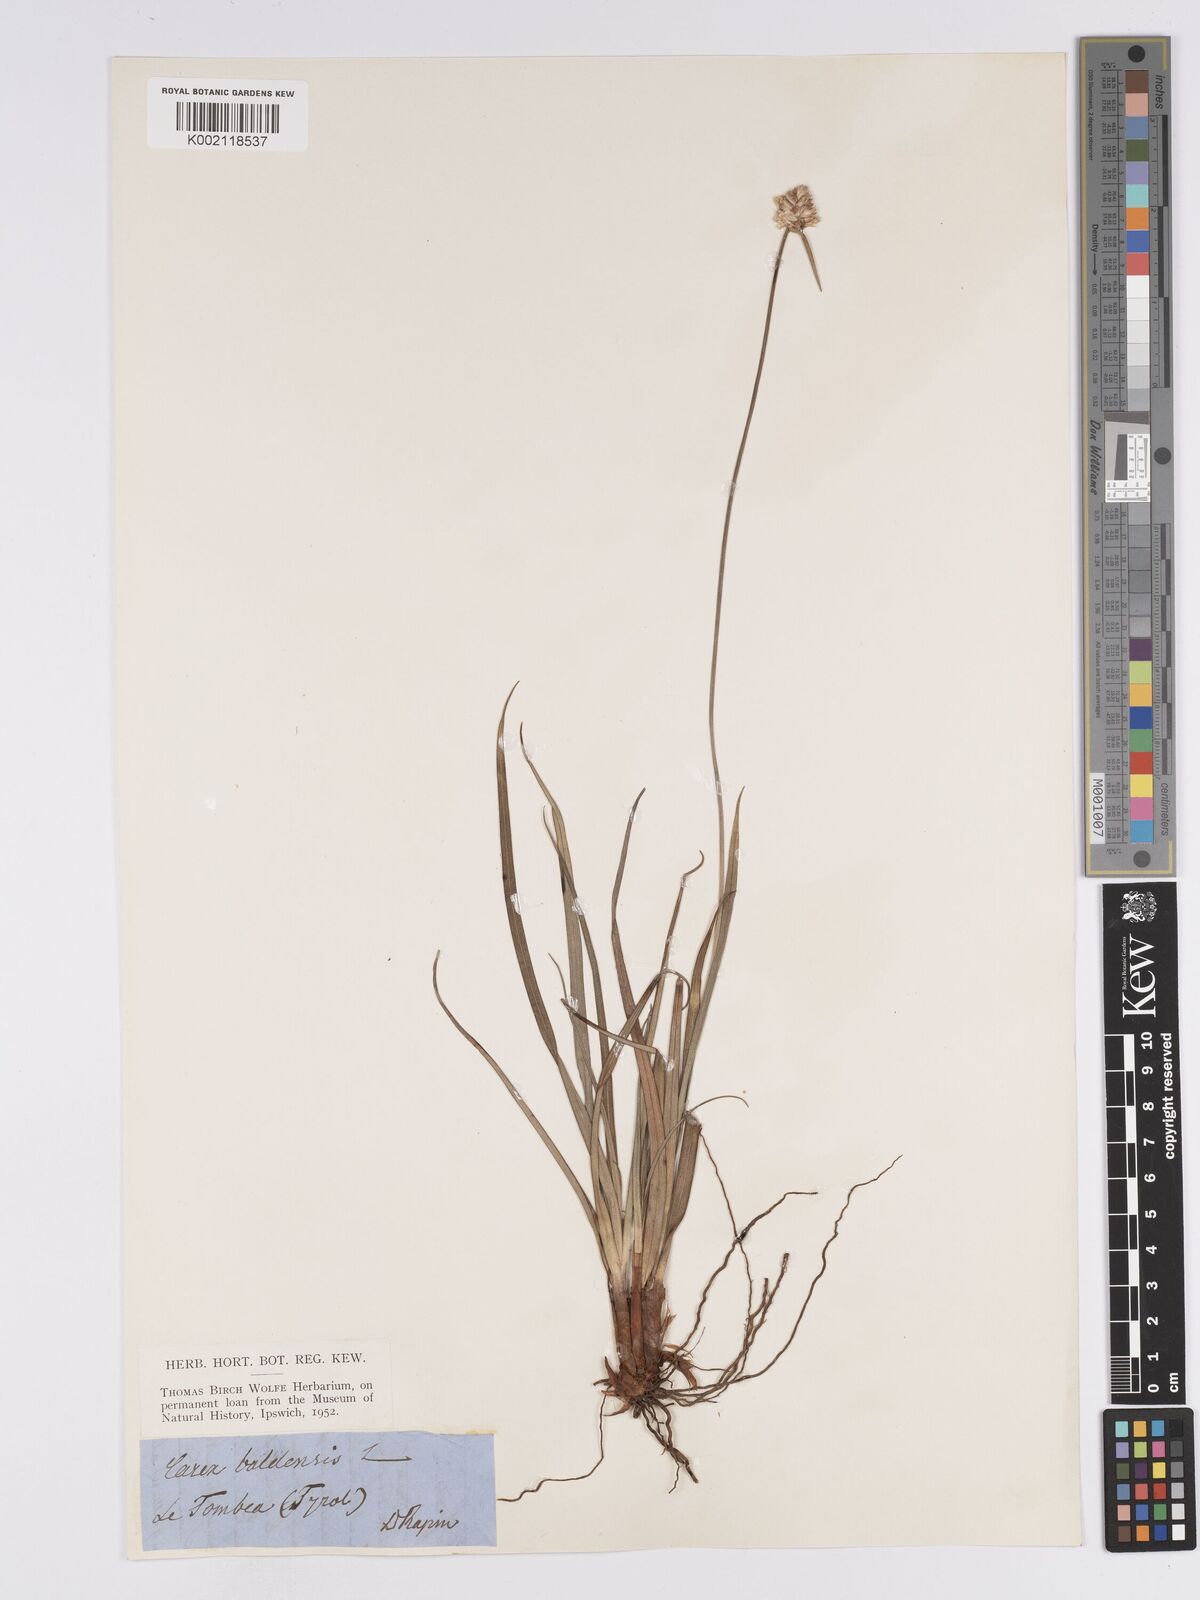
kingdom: Plantae
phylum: Tracheophyta
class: Liliopsida
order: Poales
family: Cyperaceae
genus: Carex
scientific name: Carex baldensis
